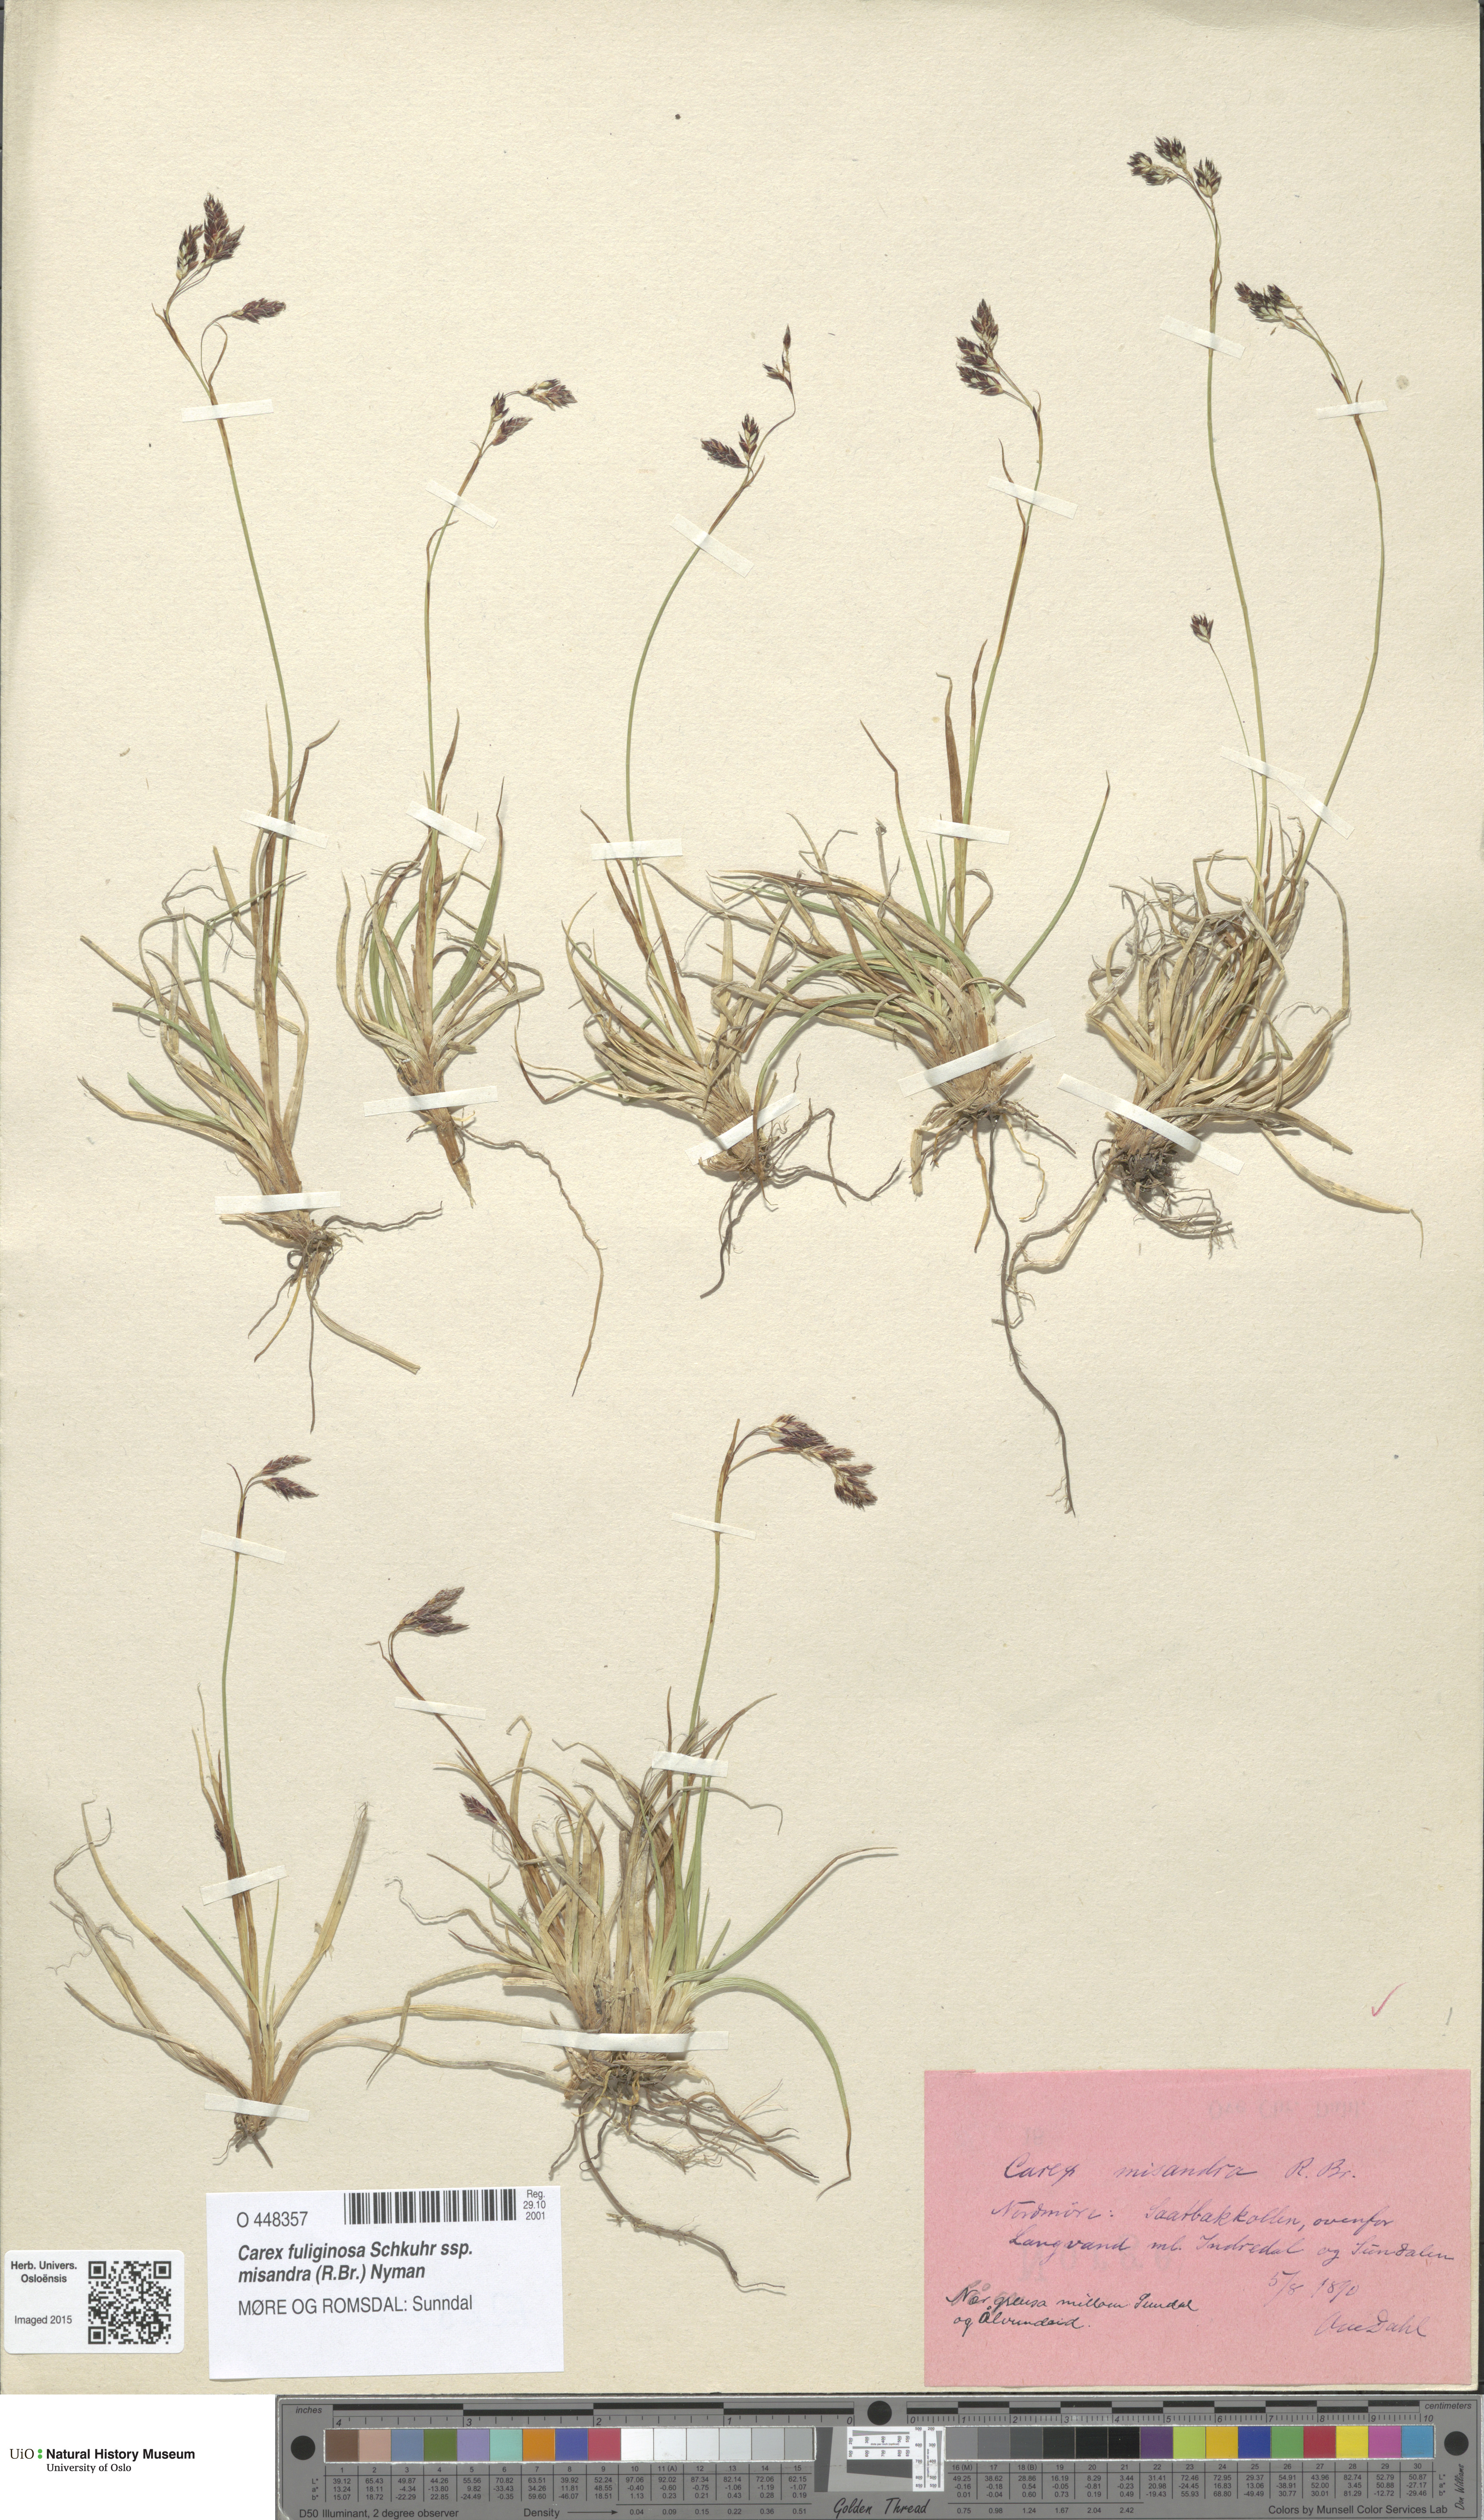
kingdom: Plantae
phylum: Tracheophyta
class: Liliopsida
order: Poales
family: Cyperaceae
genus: Carex
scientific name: Carex fuliginosa
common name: Few-flowered sedge
